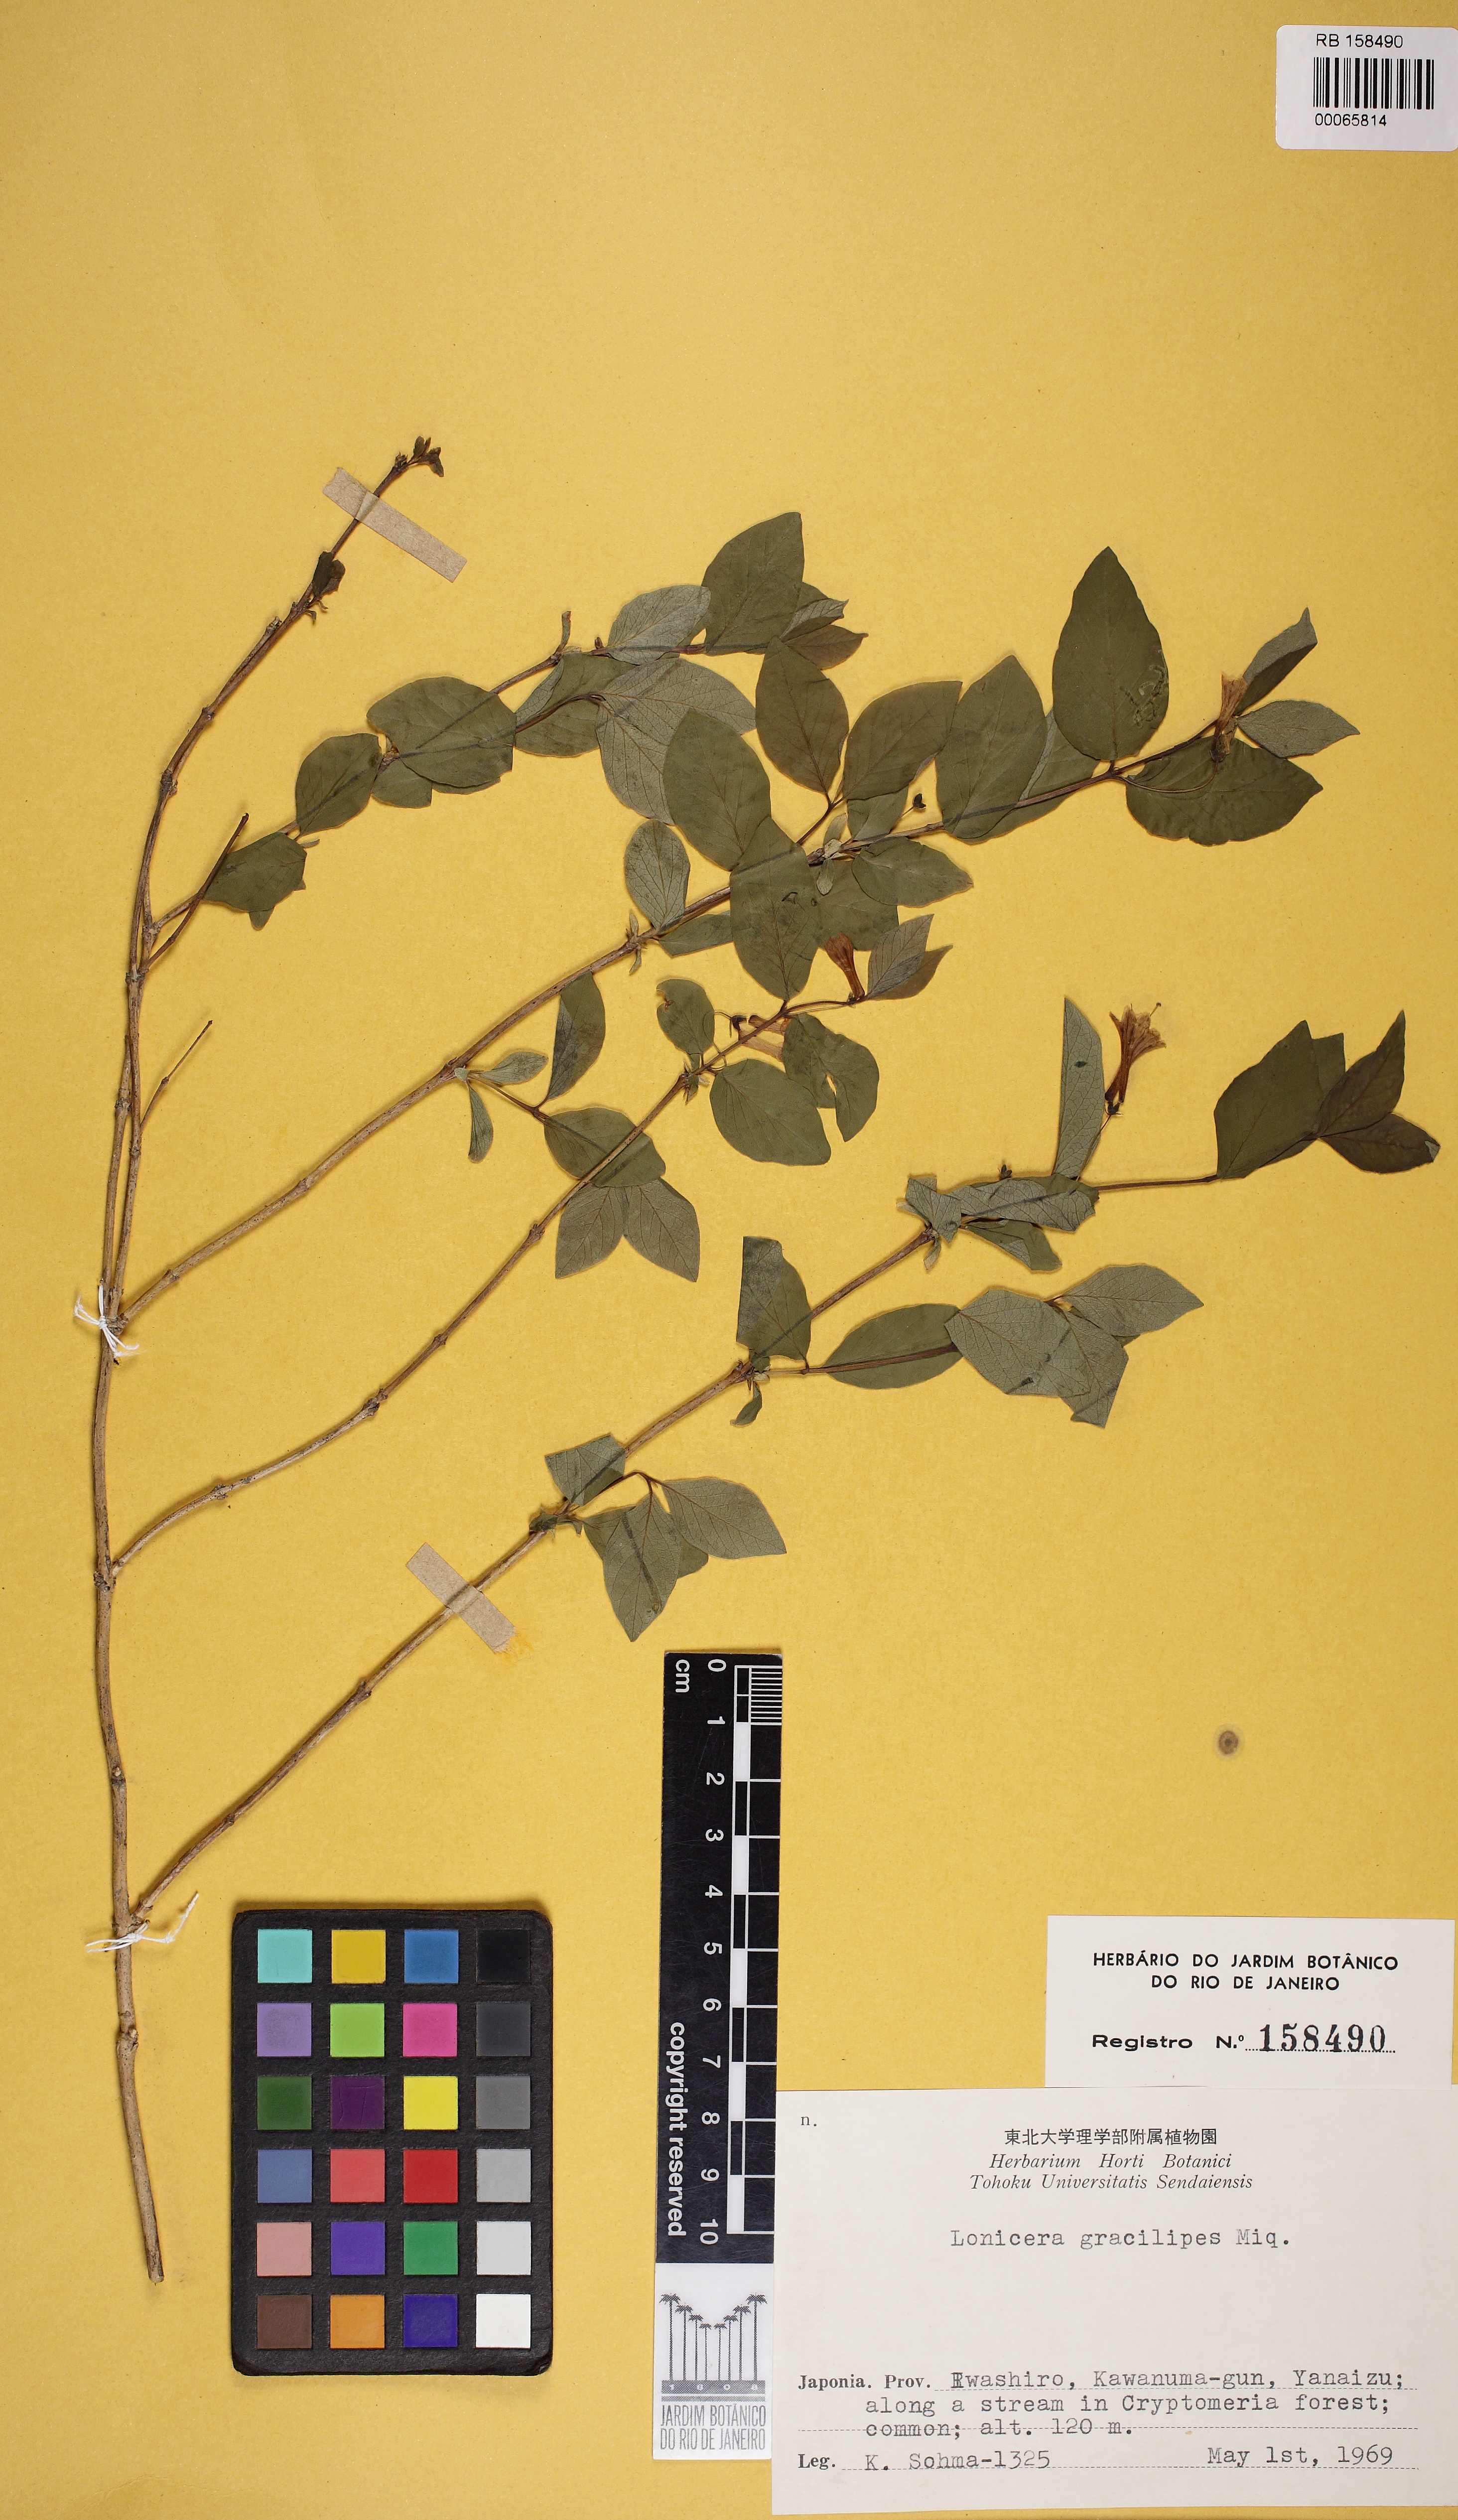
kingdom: Plantae
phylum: Tracheophyta
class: Magnoliopsida
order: Dipsacales
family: Caprifoliaceae
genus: Lonicera
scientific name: Lonicera gracilipes
